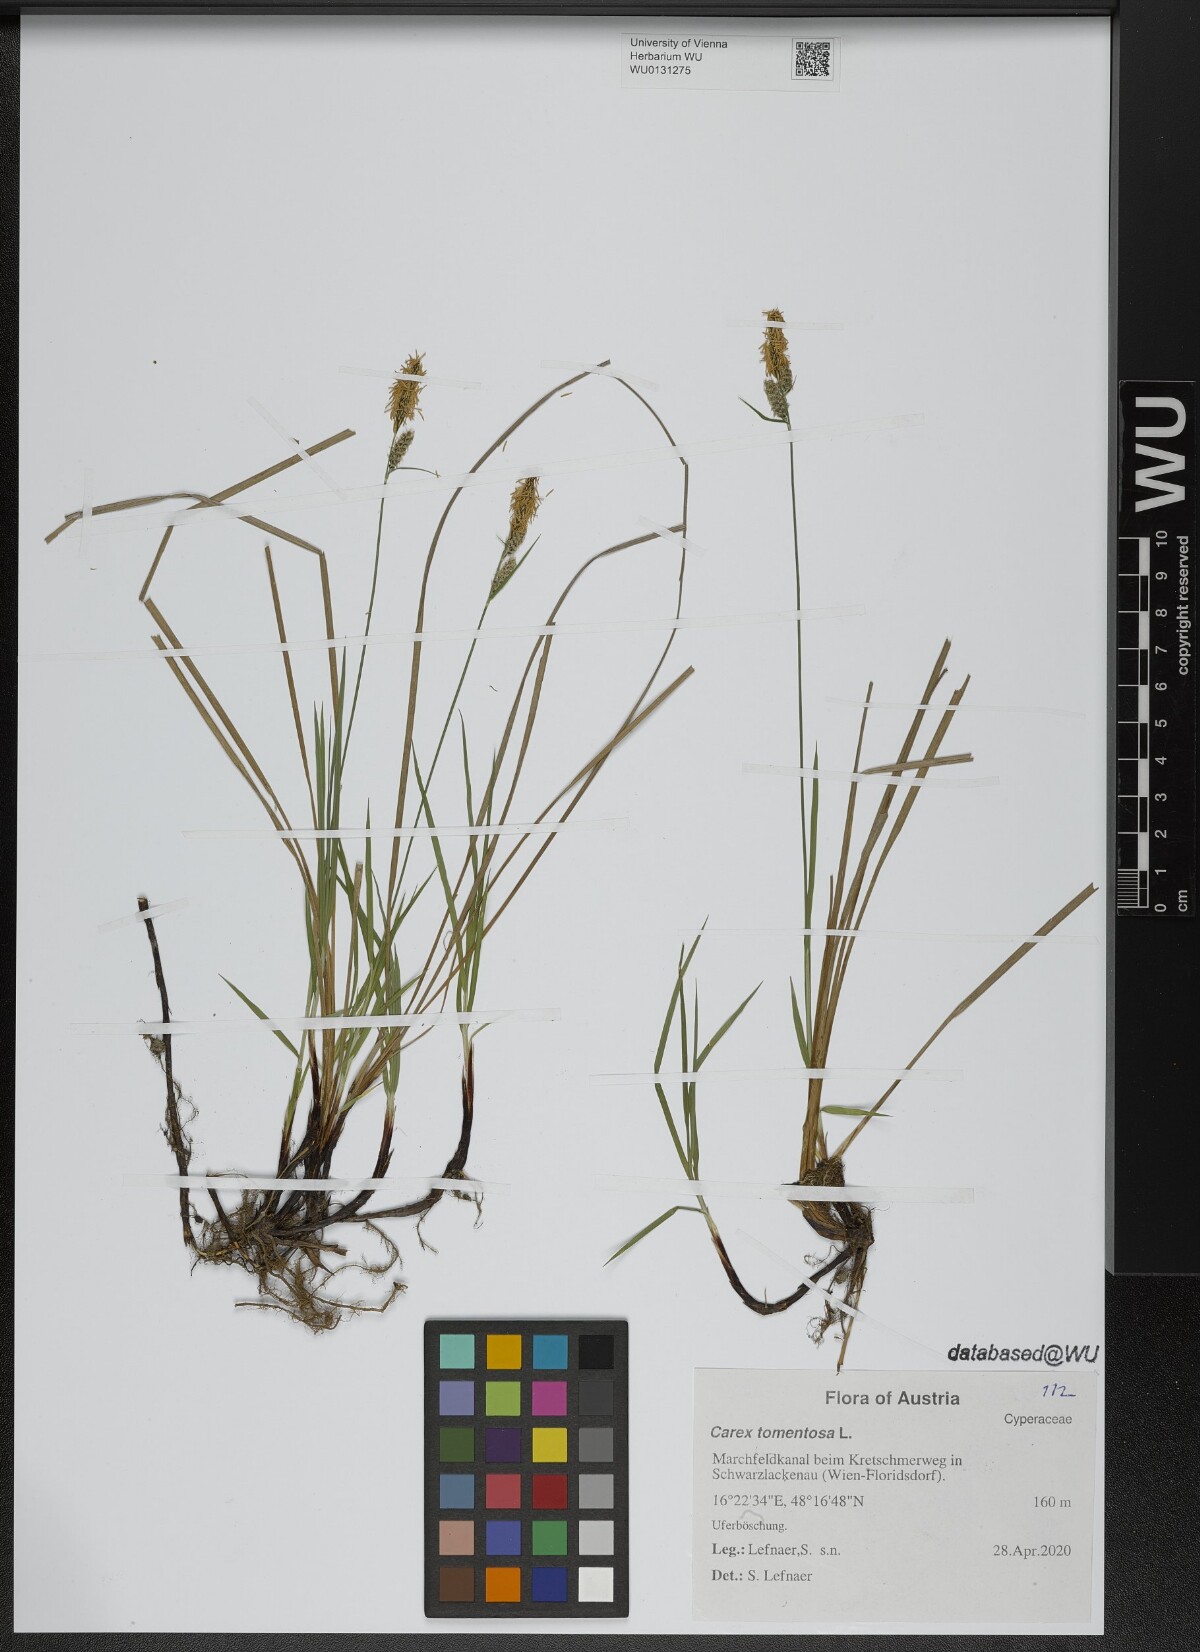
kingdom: Plantae
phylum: Tracheophyta
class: Liliopsida
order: Poales
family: Cyperaceae
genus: Carex
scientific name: Carex tomentosa
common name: Downy-fruited sedge
